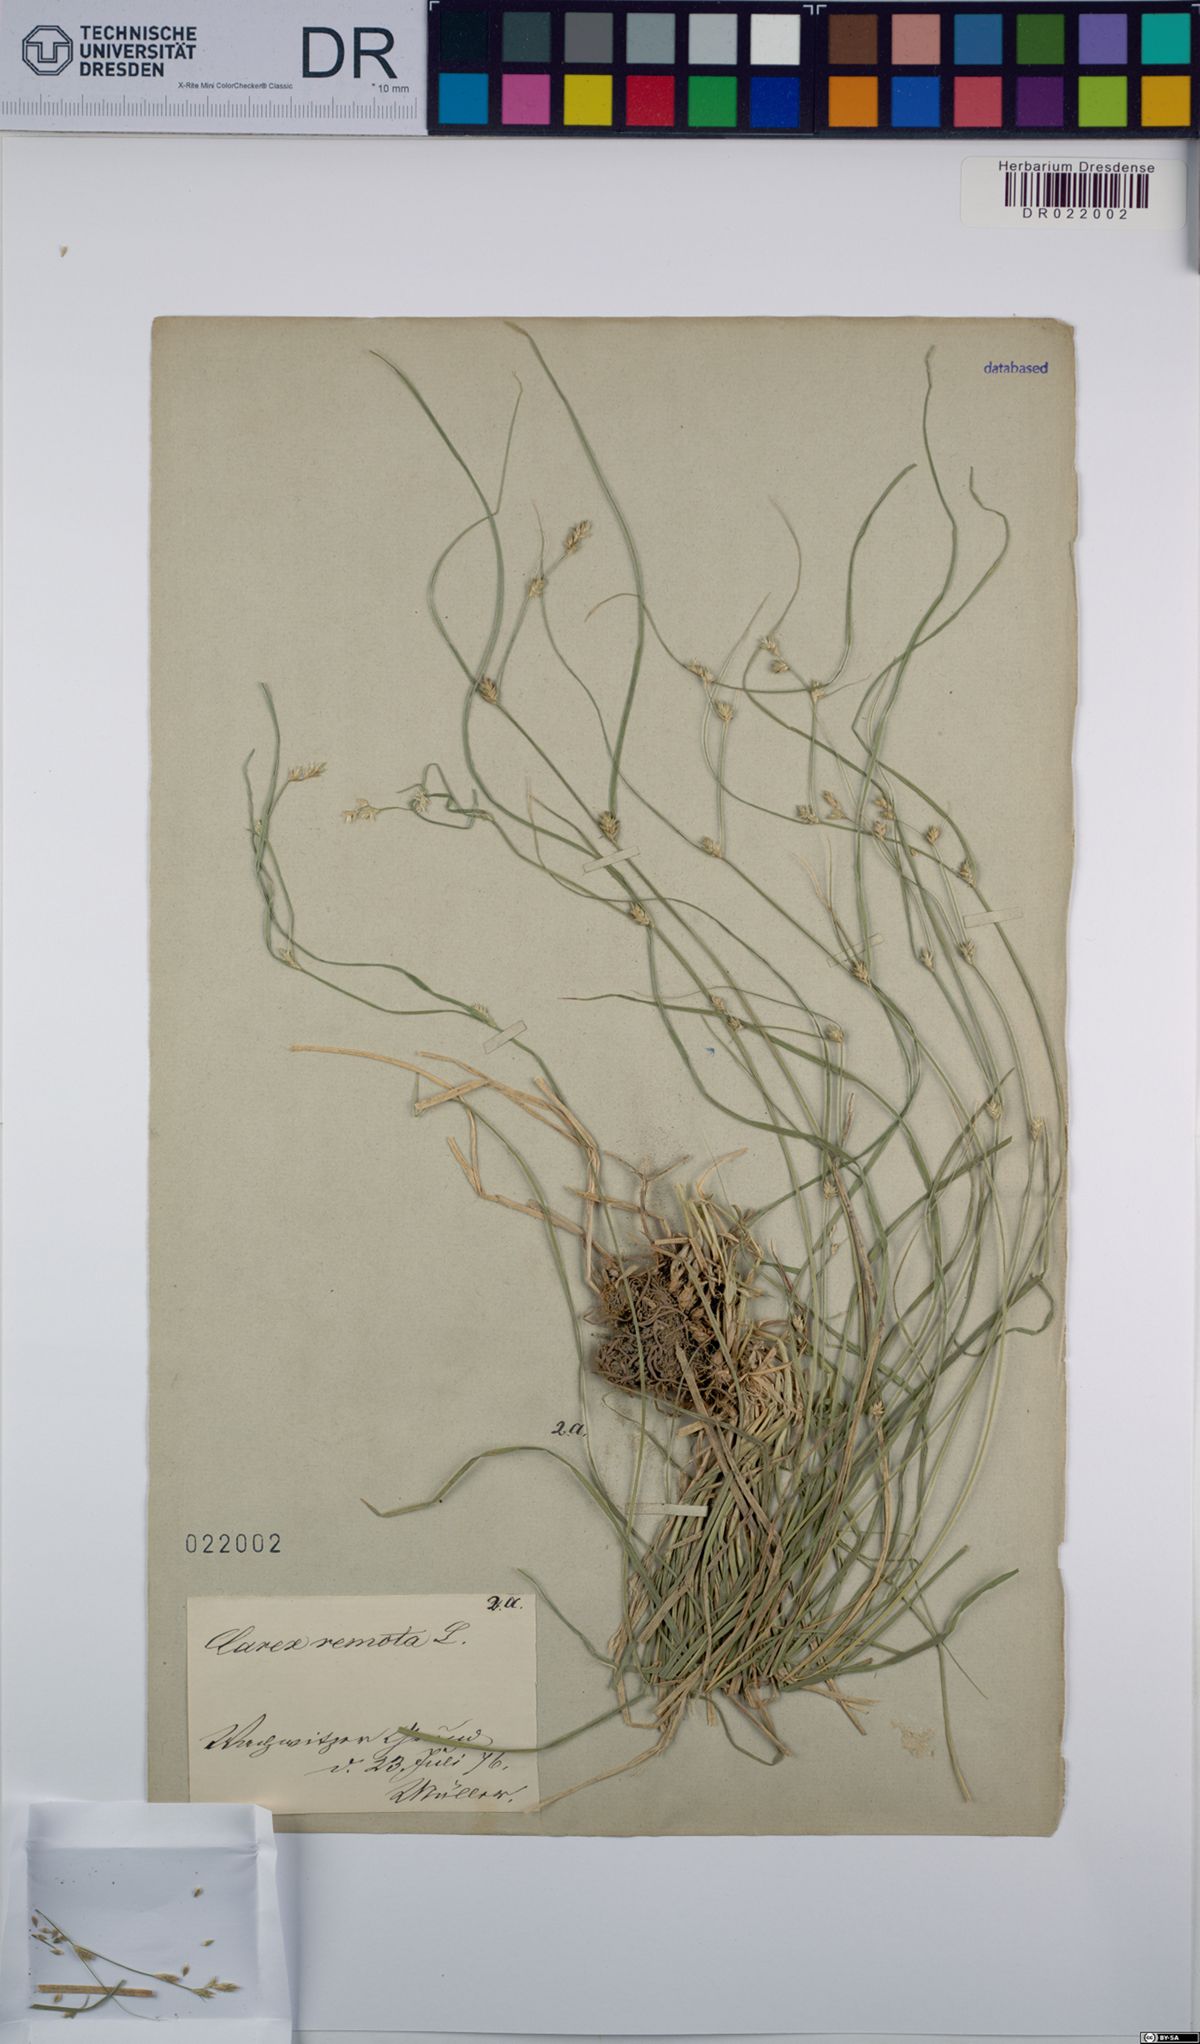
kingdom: Plantae
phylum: Tracheophyta
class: Liliopsida
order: Poales
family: Cyperaceae
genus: Carex
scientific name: Carex remota
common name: Remote sedge
